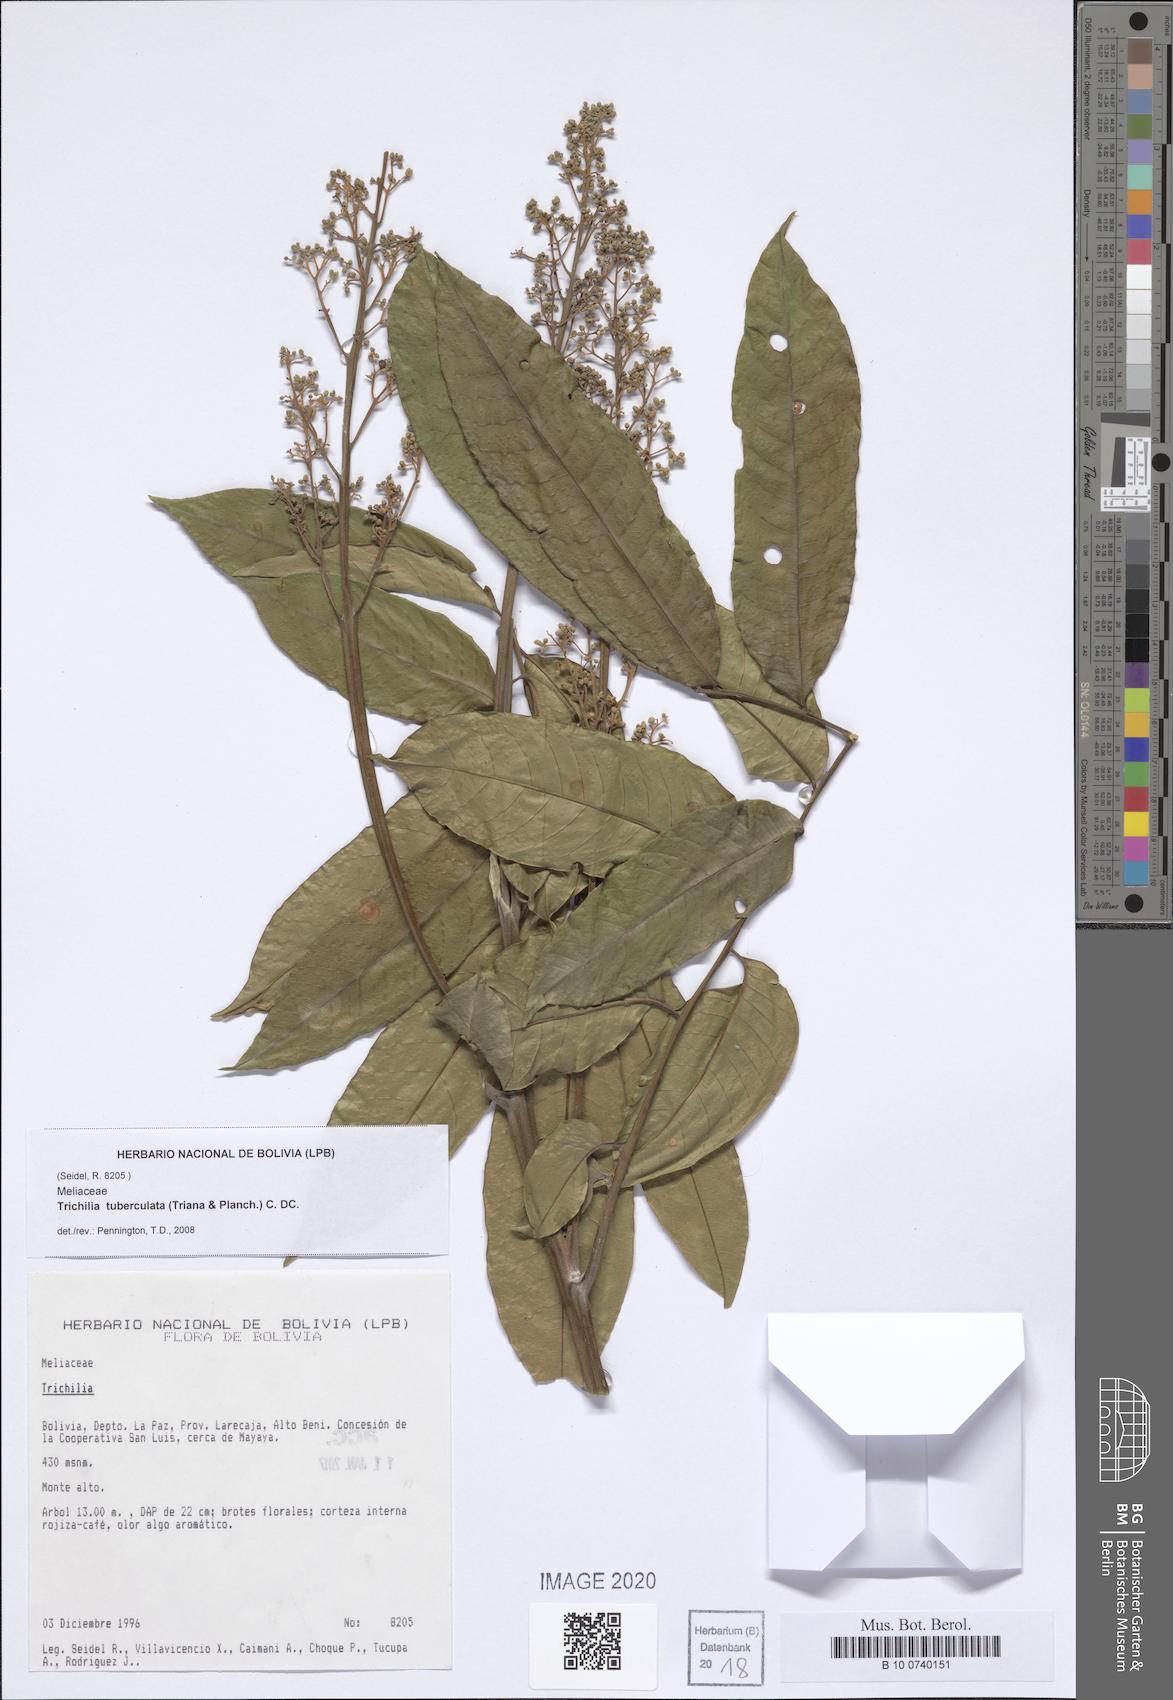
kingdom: Plantae
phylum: Tracheophyta
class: Magnoliopsida
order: Sapindales
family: Meliaceae
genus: Trichilia
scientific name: Trichilia tuberculata
